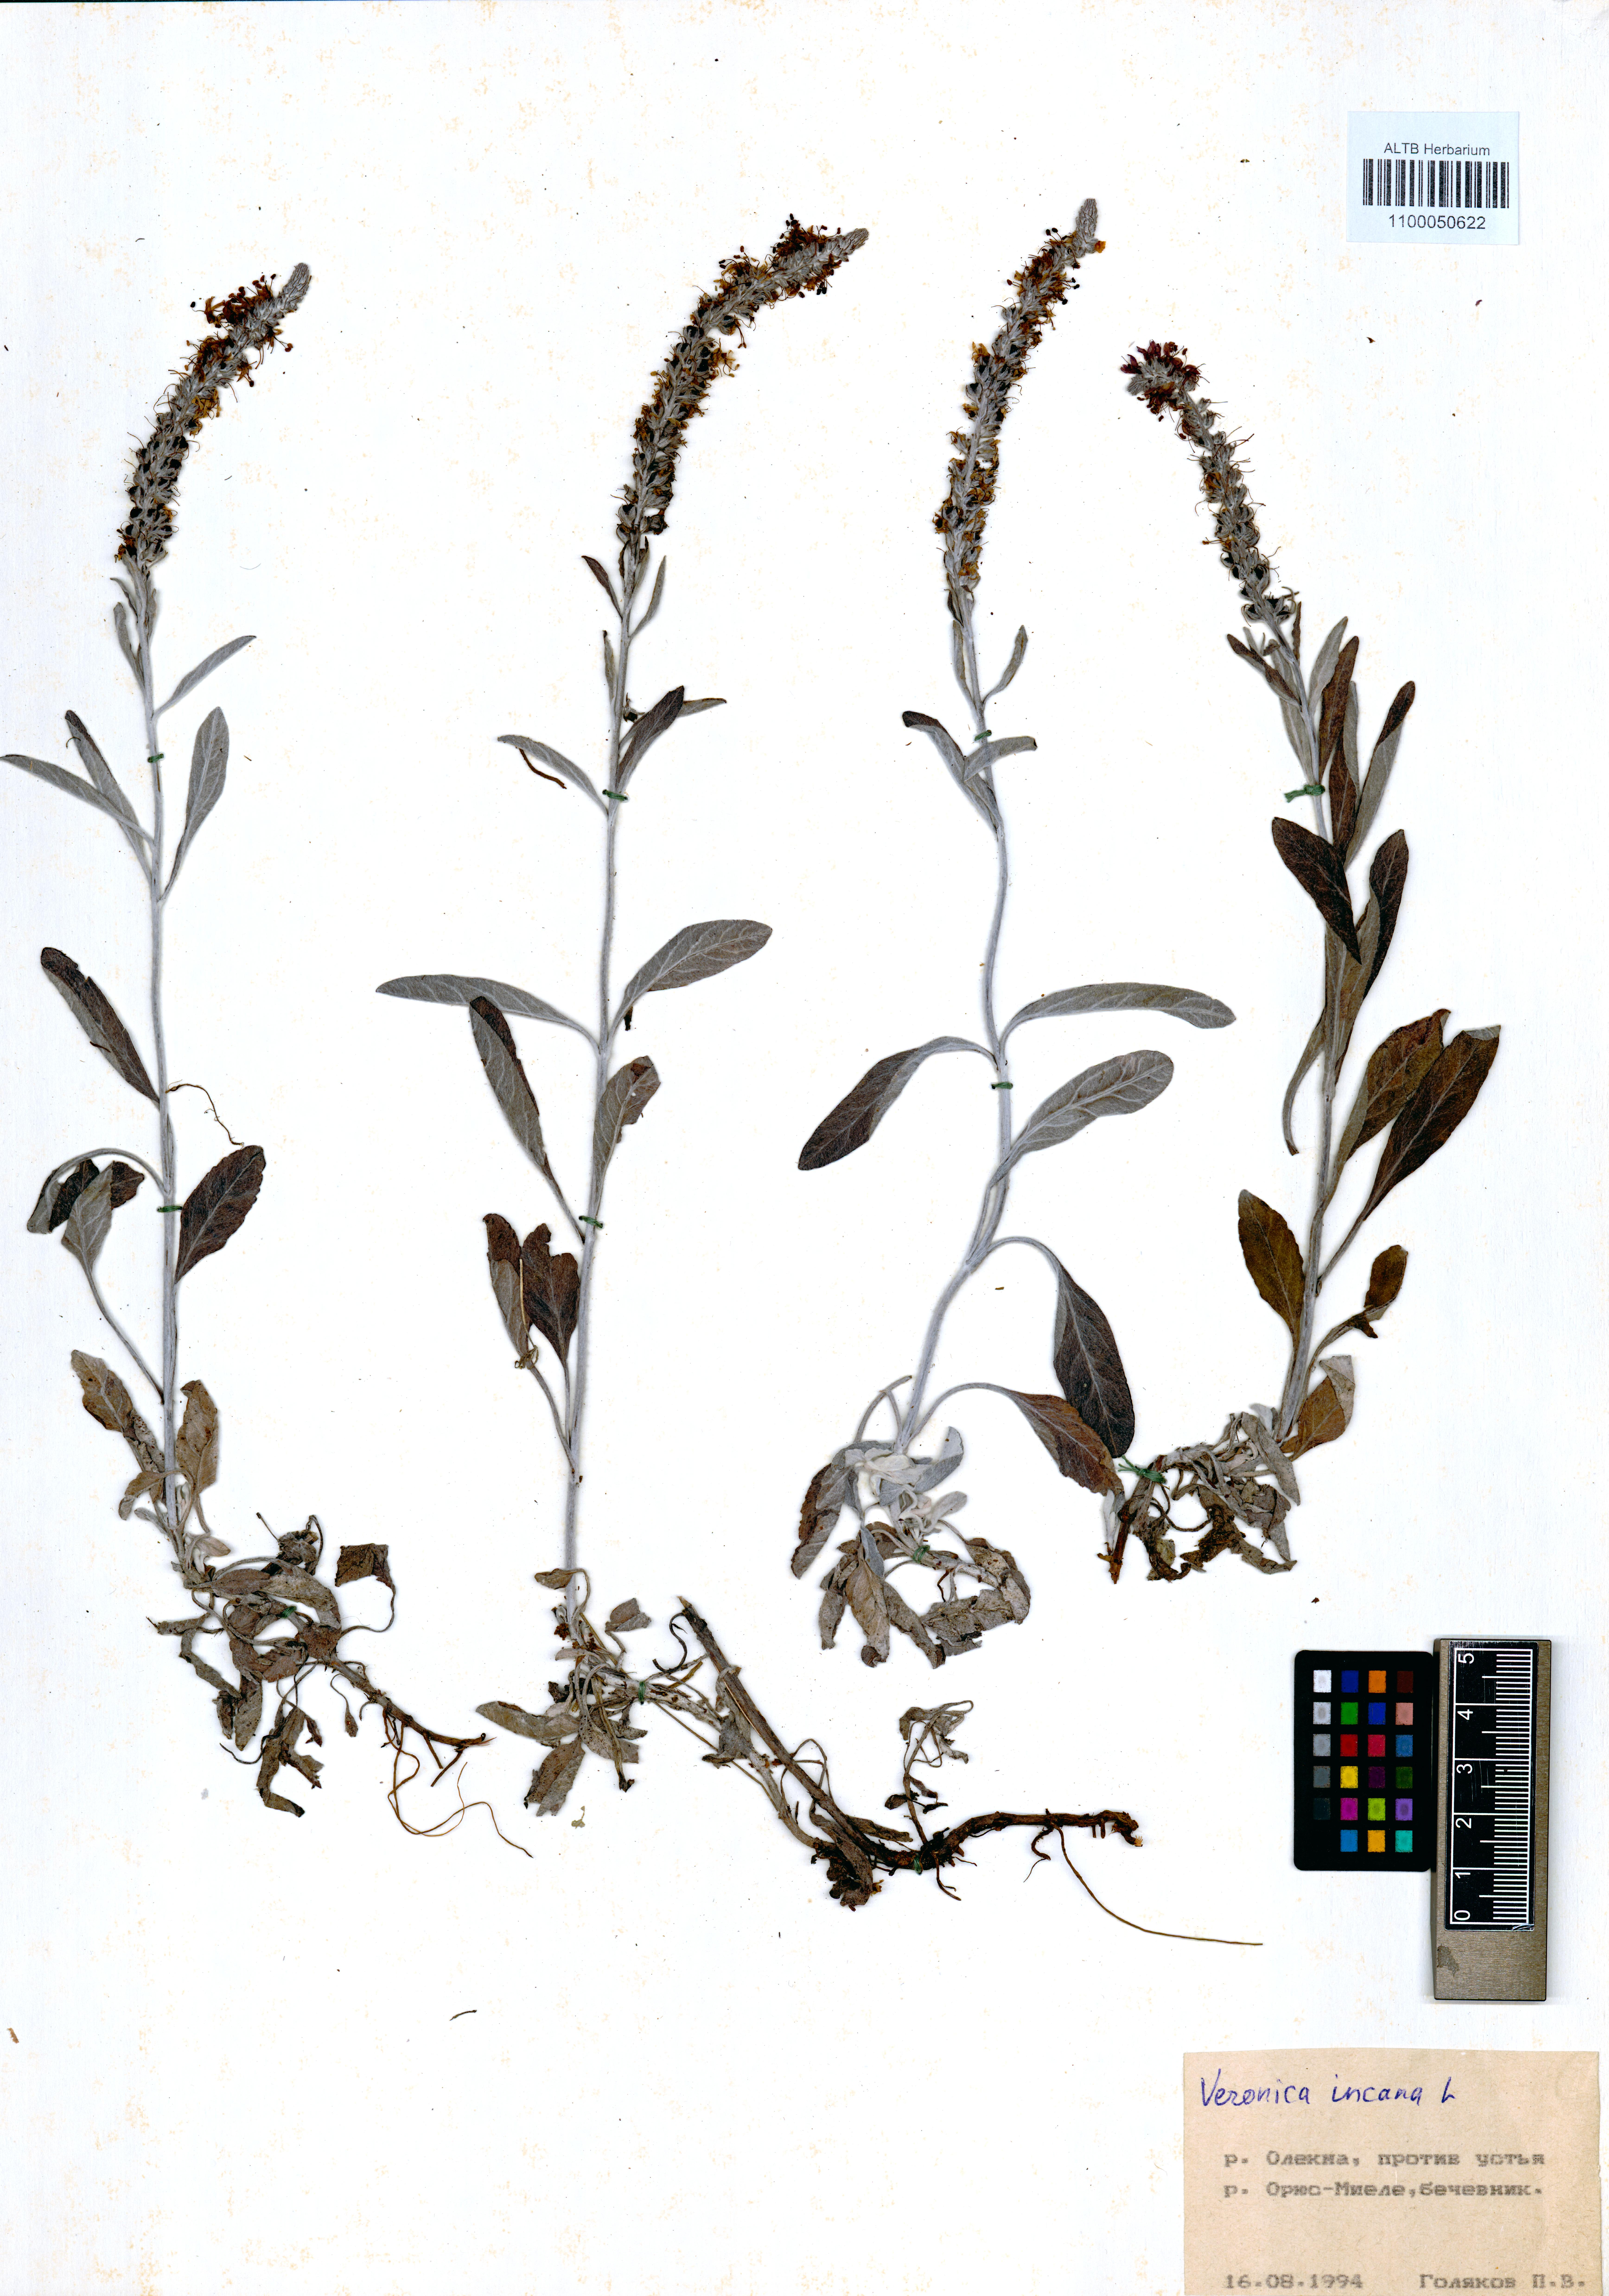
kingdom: Plantae
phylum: Tracheophyta
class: Magnoliopsida
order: Lamiales
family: Plantaginaceae
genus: Veronica
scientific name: Veronica incana
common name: Silver speedwell
